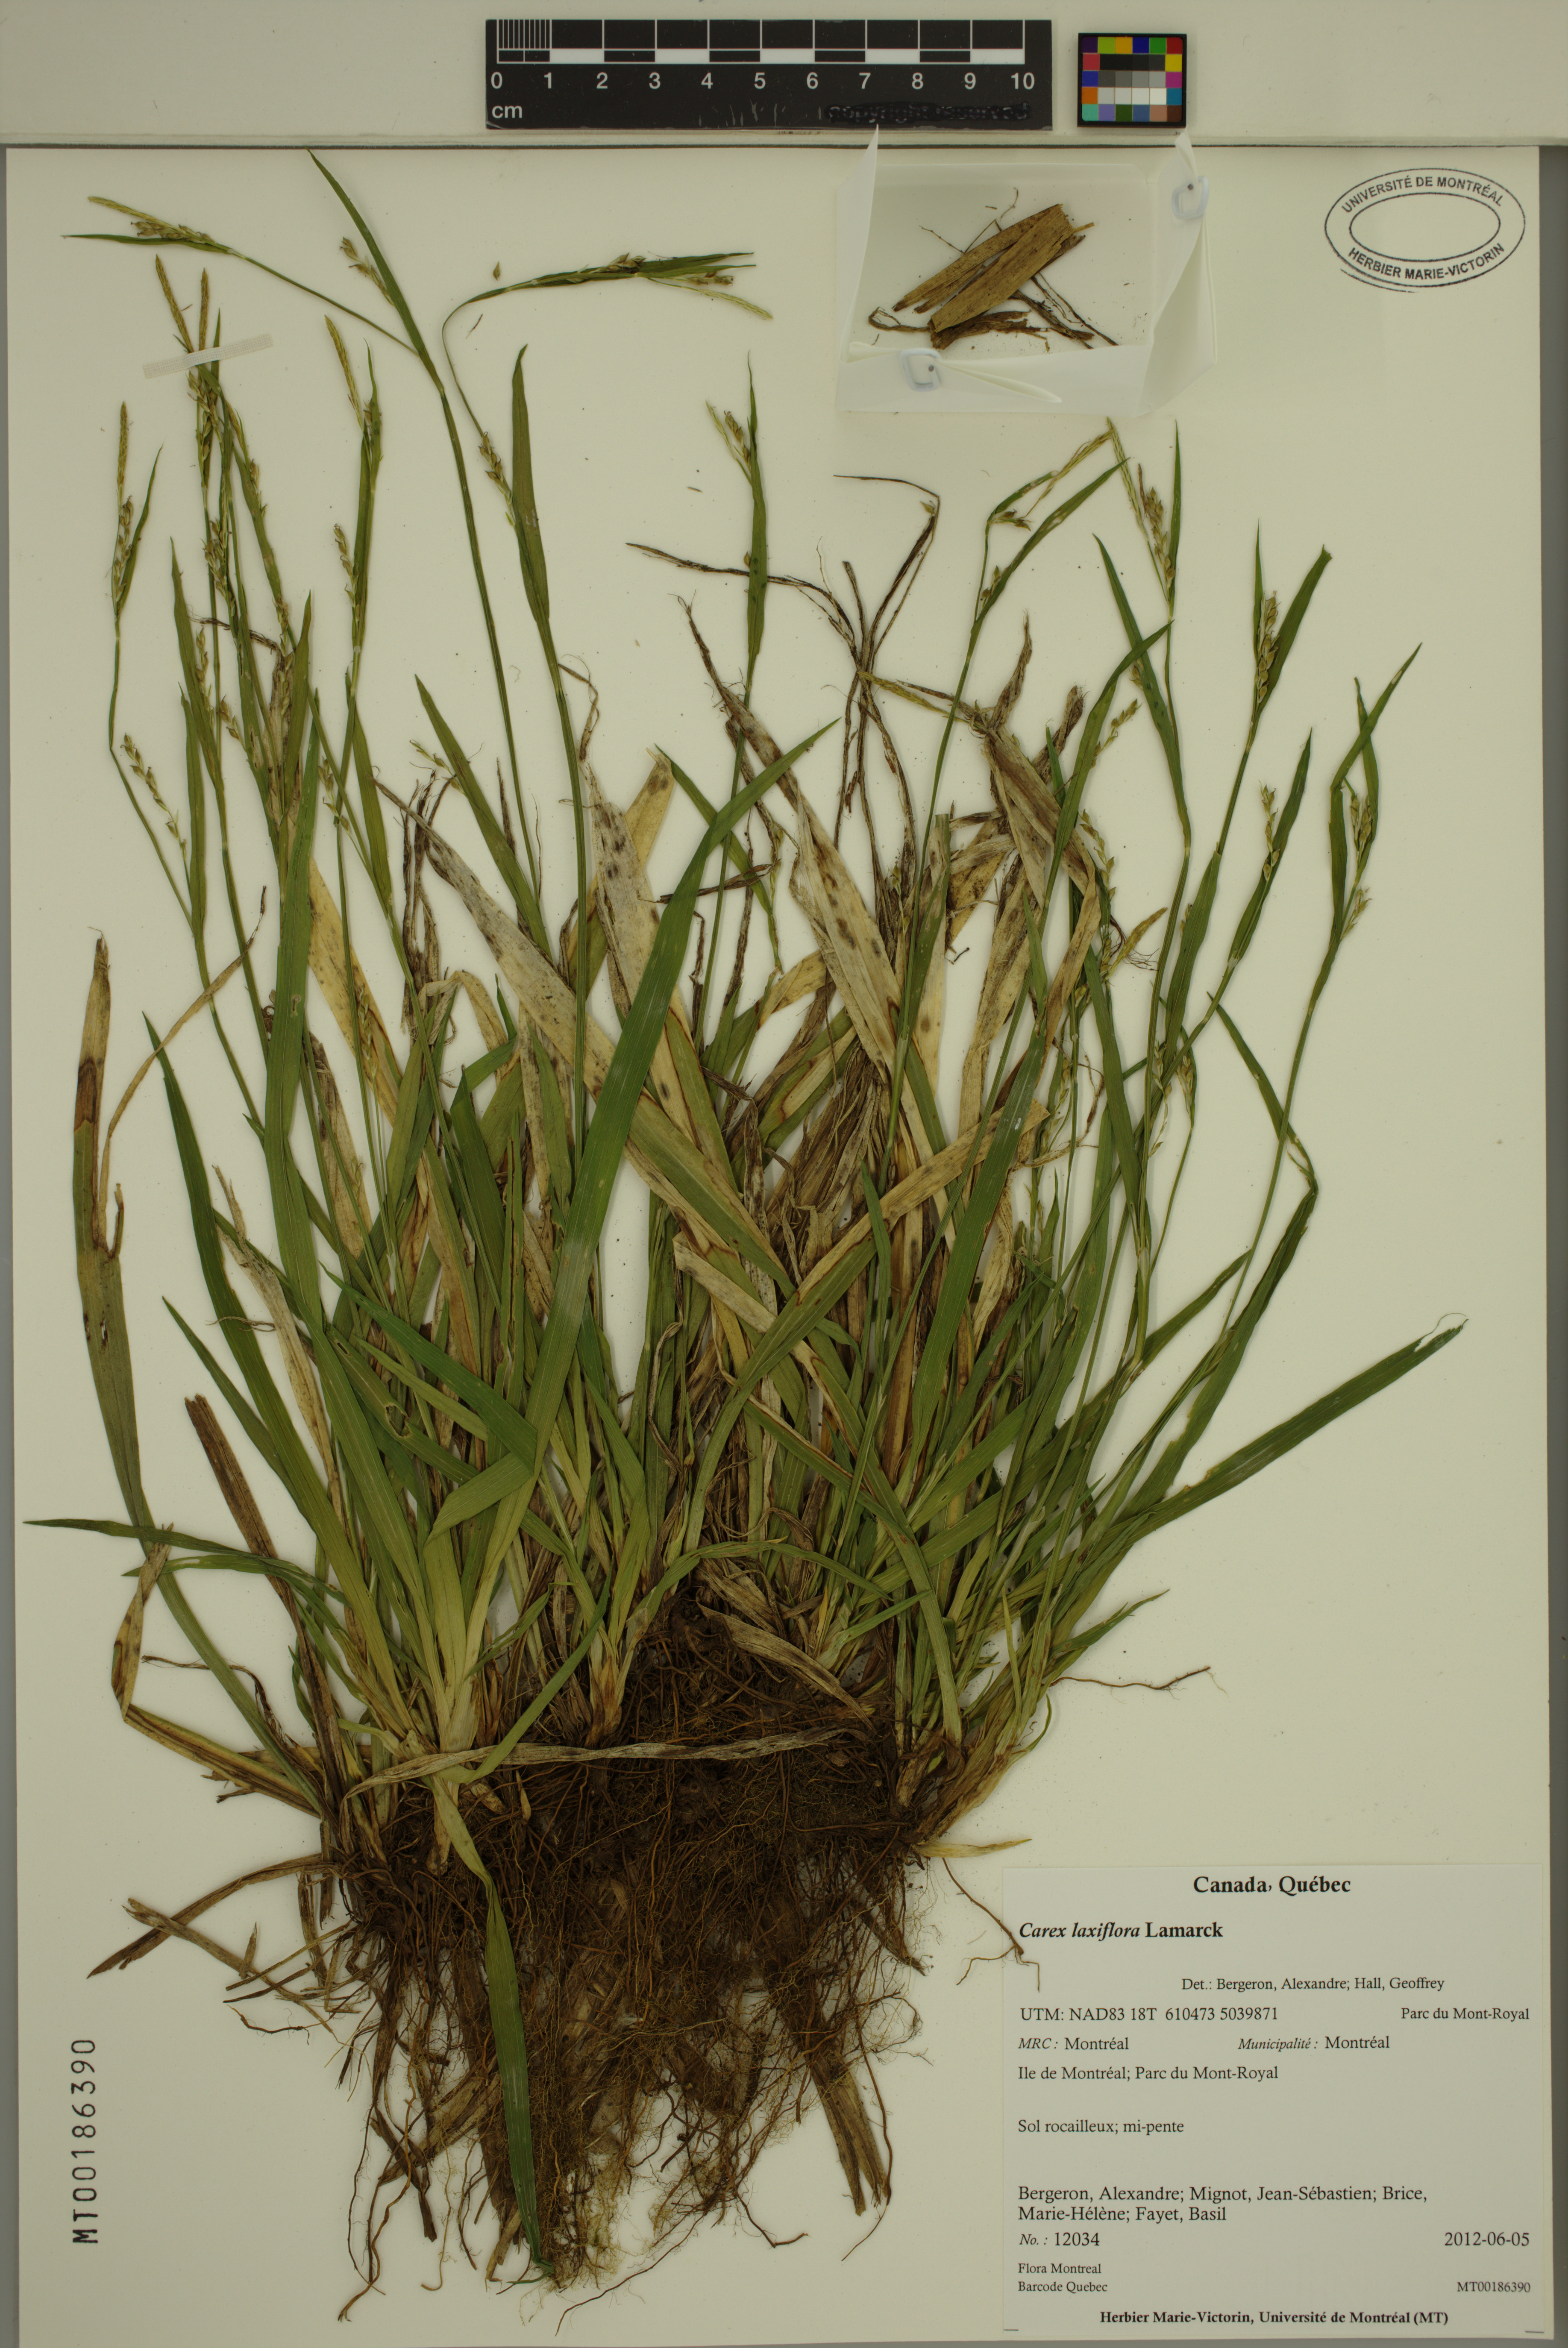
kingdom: Plantae
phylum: Tracheophyta
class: Liliopsida
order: Poales
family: Cyperaceae
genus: Carex
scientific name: Carex laxiflora
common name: Beech wood sedge
